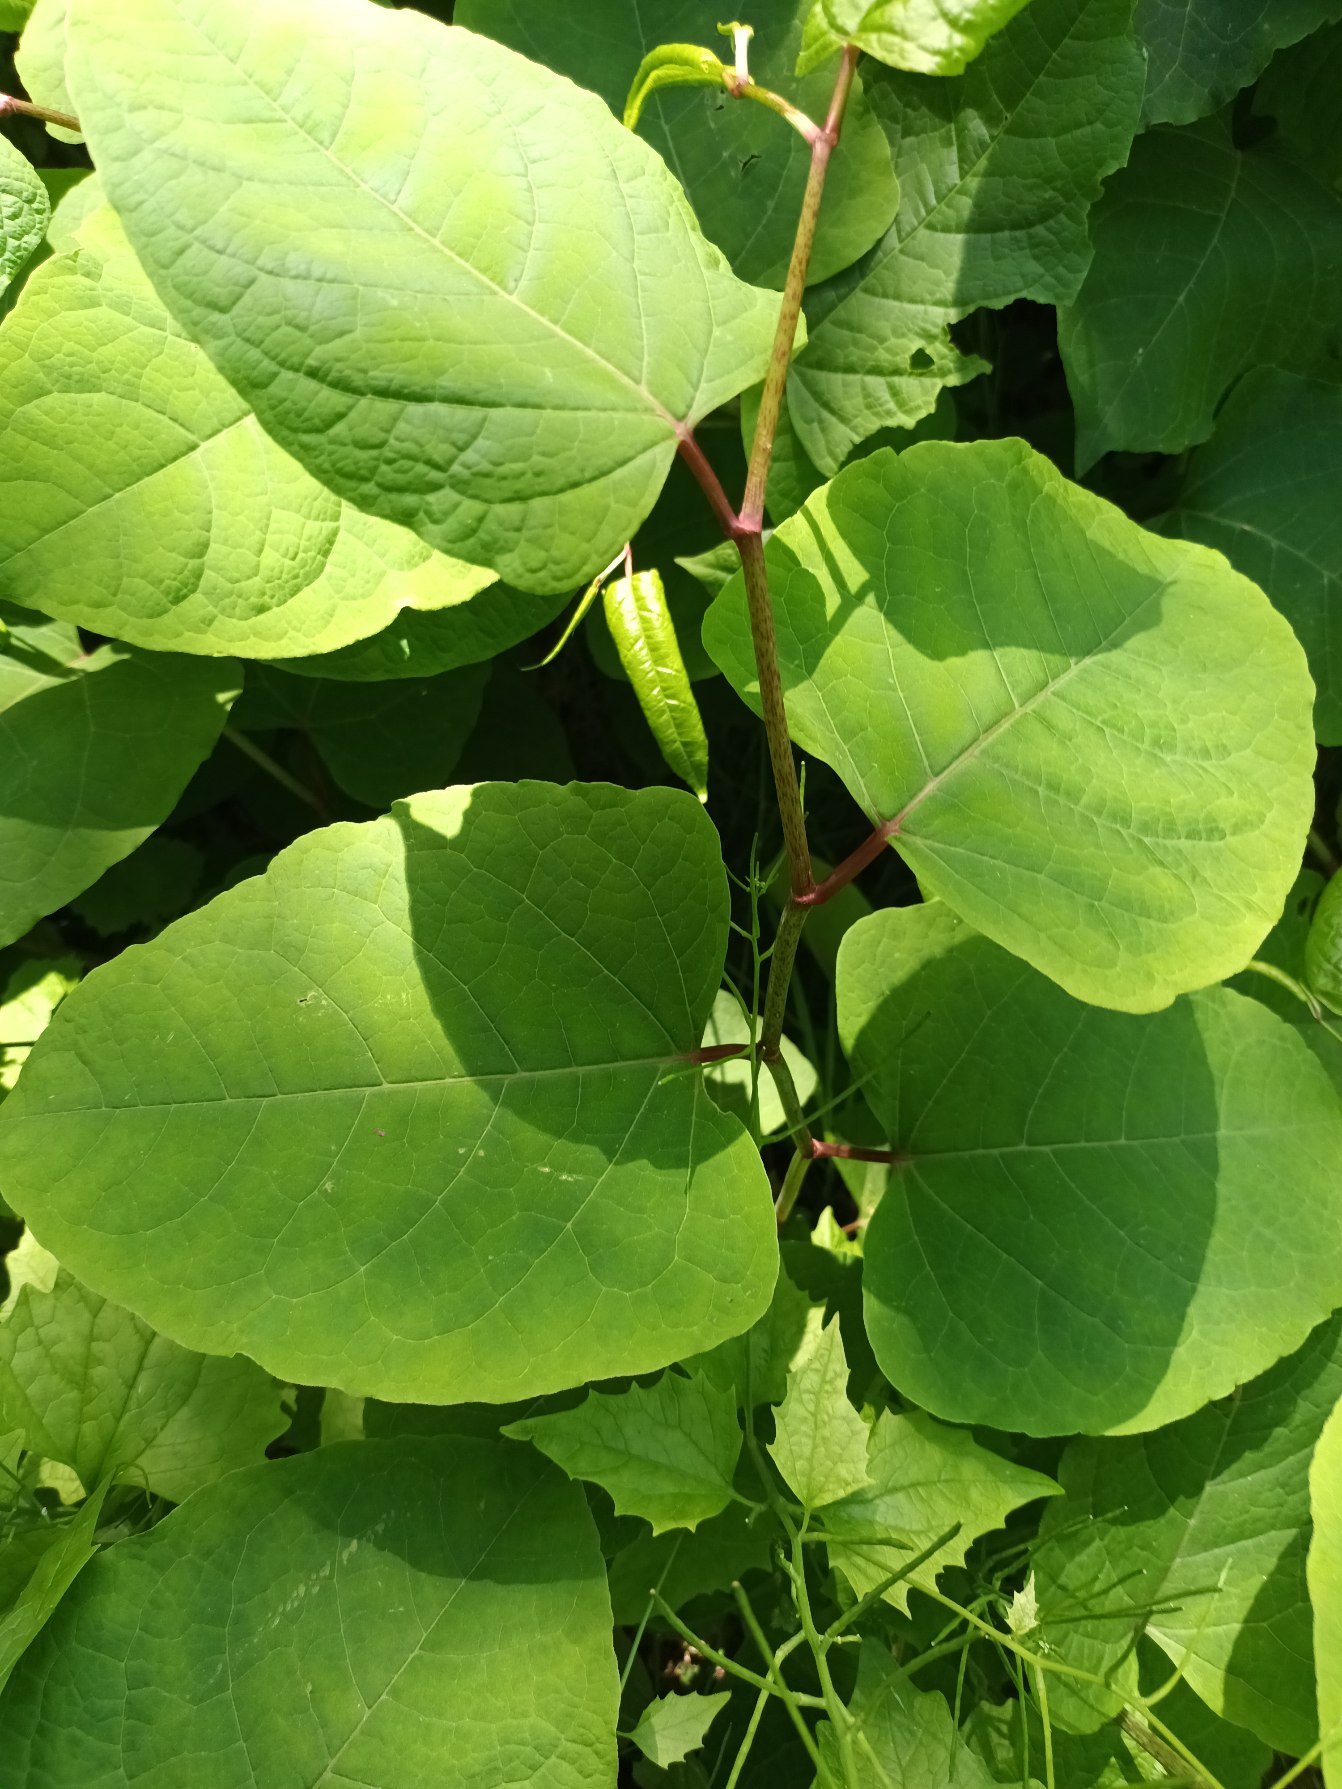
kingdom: Plantae
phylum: Tracheophyta
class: Magnoliopsida
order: Caryophyllales
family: Polygonaceae
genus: Reynoutria
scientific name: Reynoutria bohemica
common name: Hybrid-pileurt
